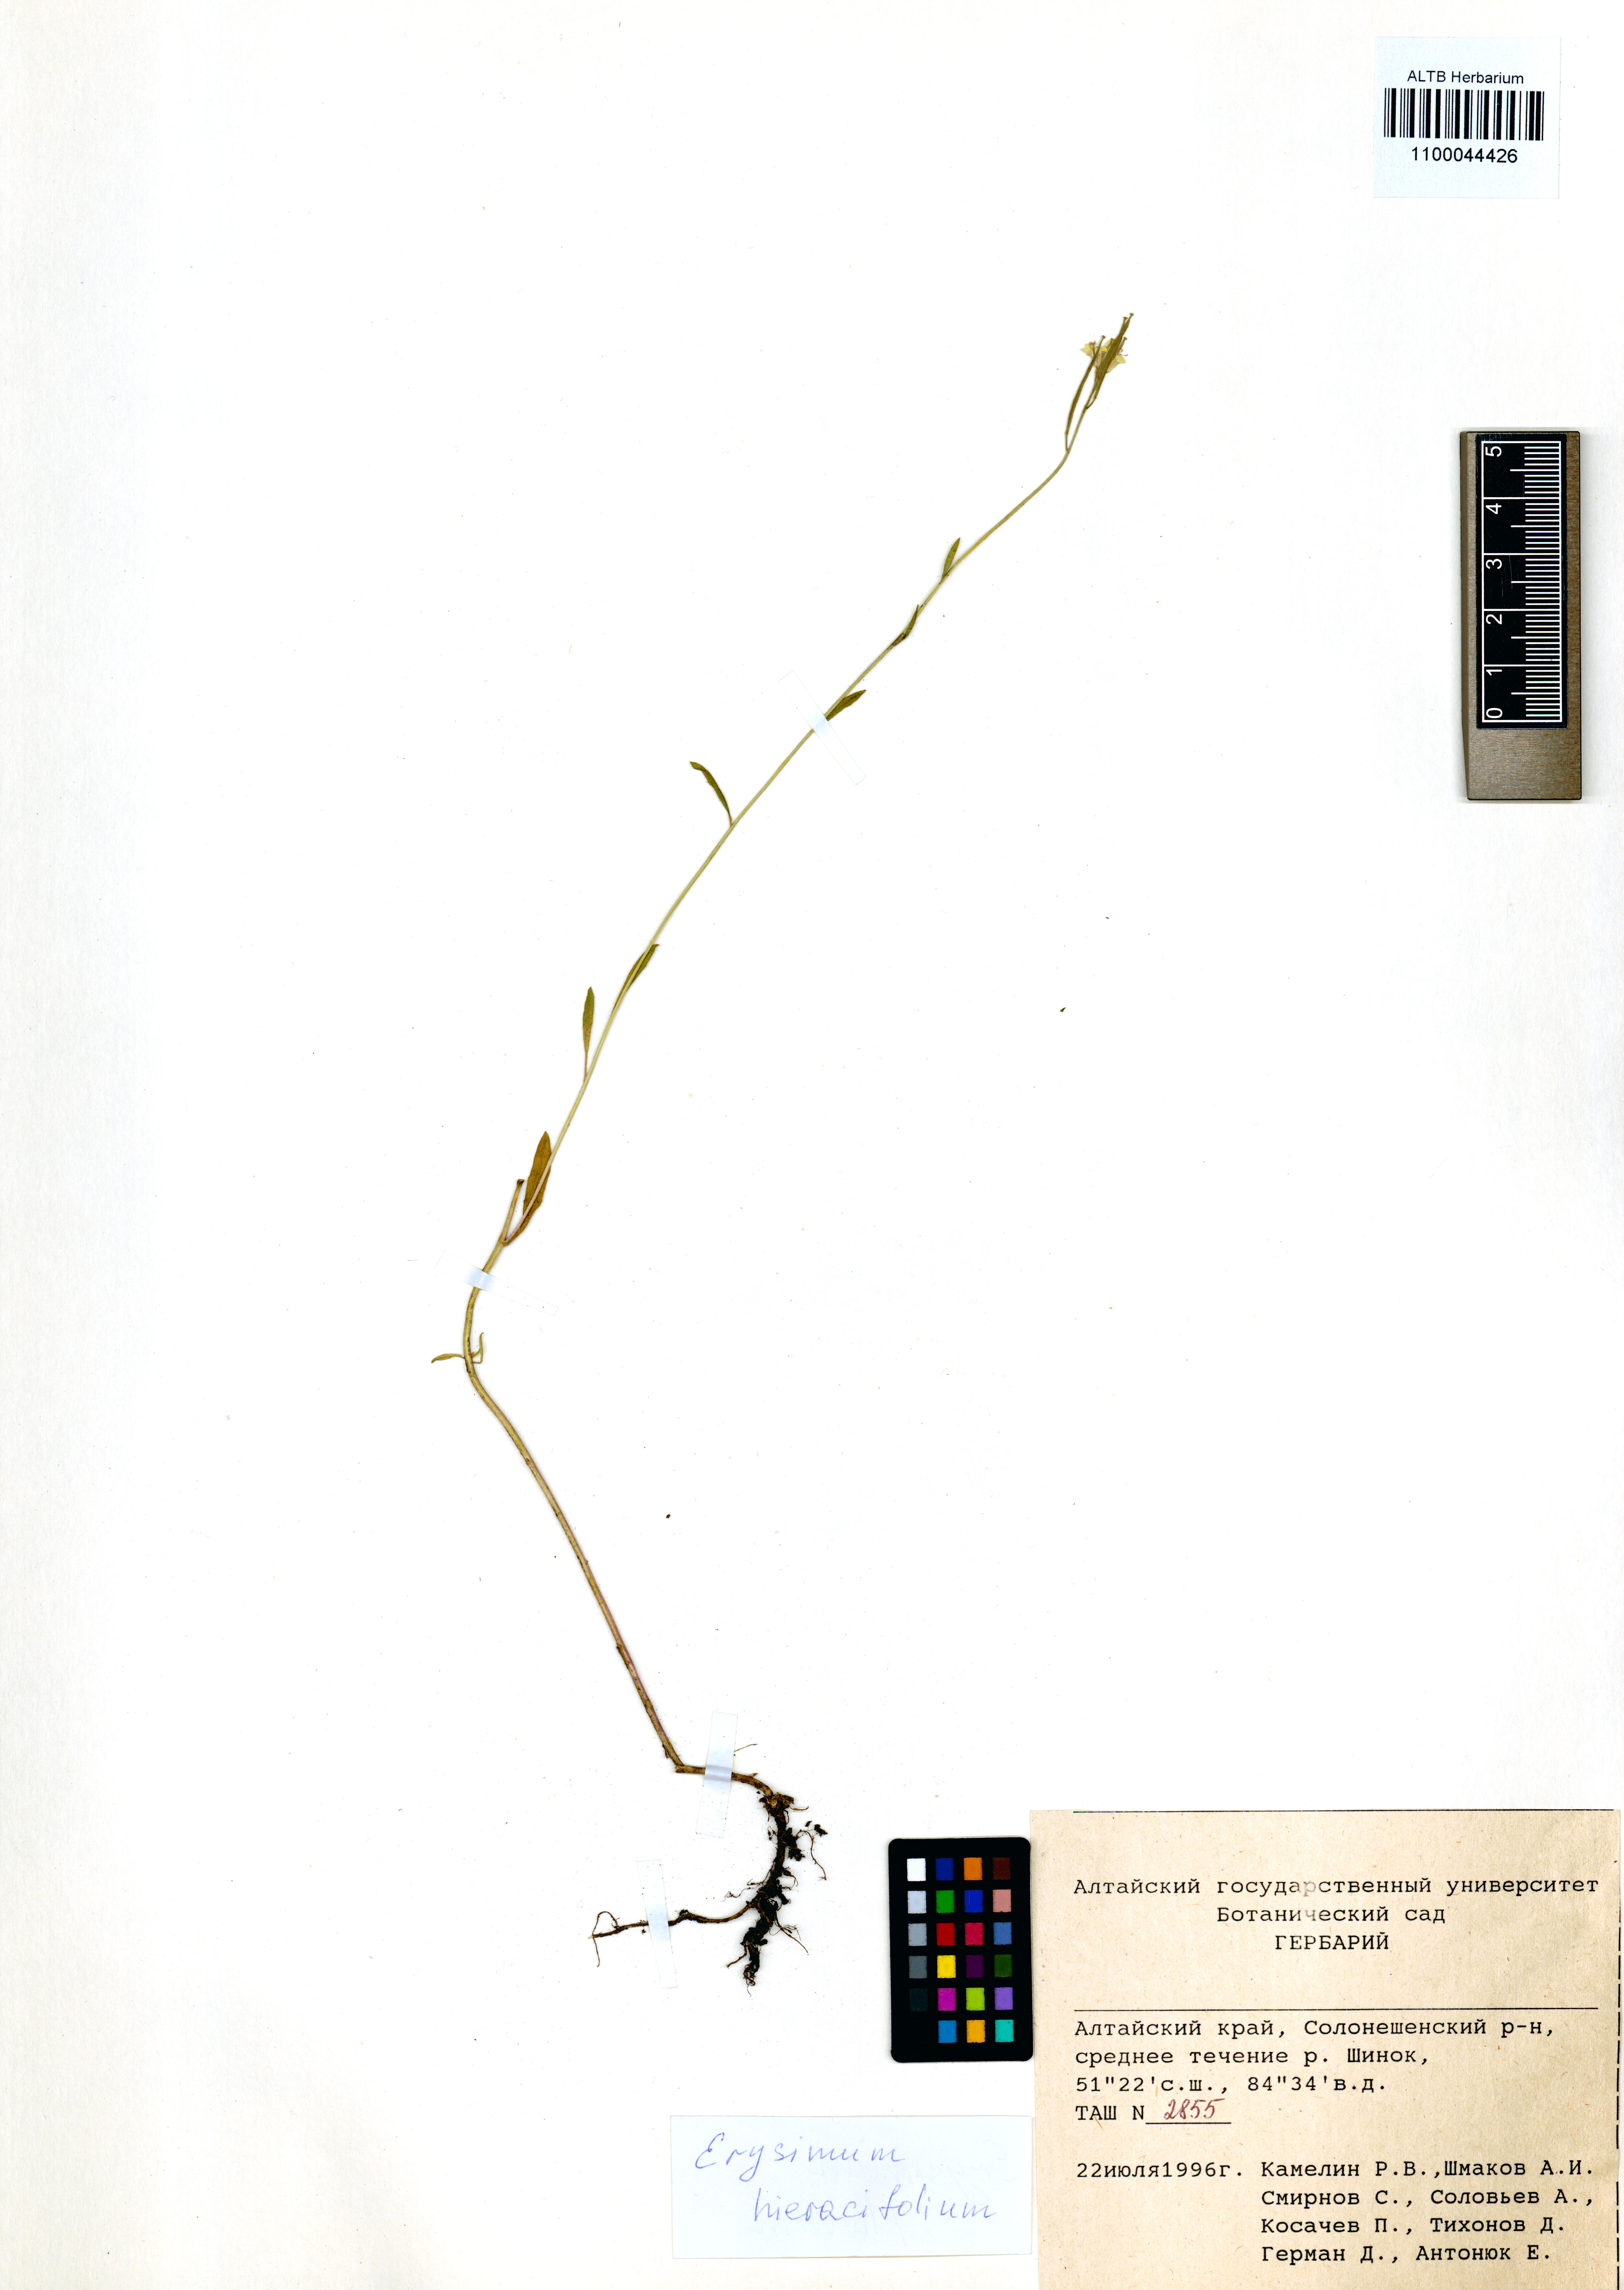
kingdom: Plantae
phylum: Tracheophyta
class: Magnoliopsida
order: Brassicales
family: Brassicaceae
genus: Erysimum
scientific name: Erysimum hieraciifolium
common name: European wallflower
